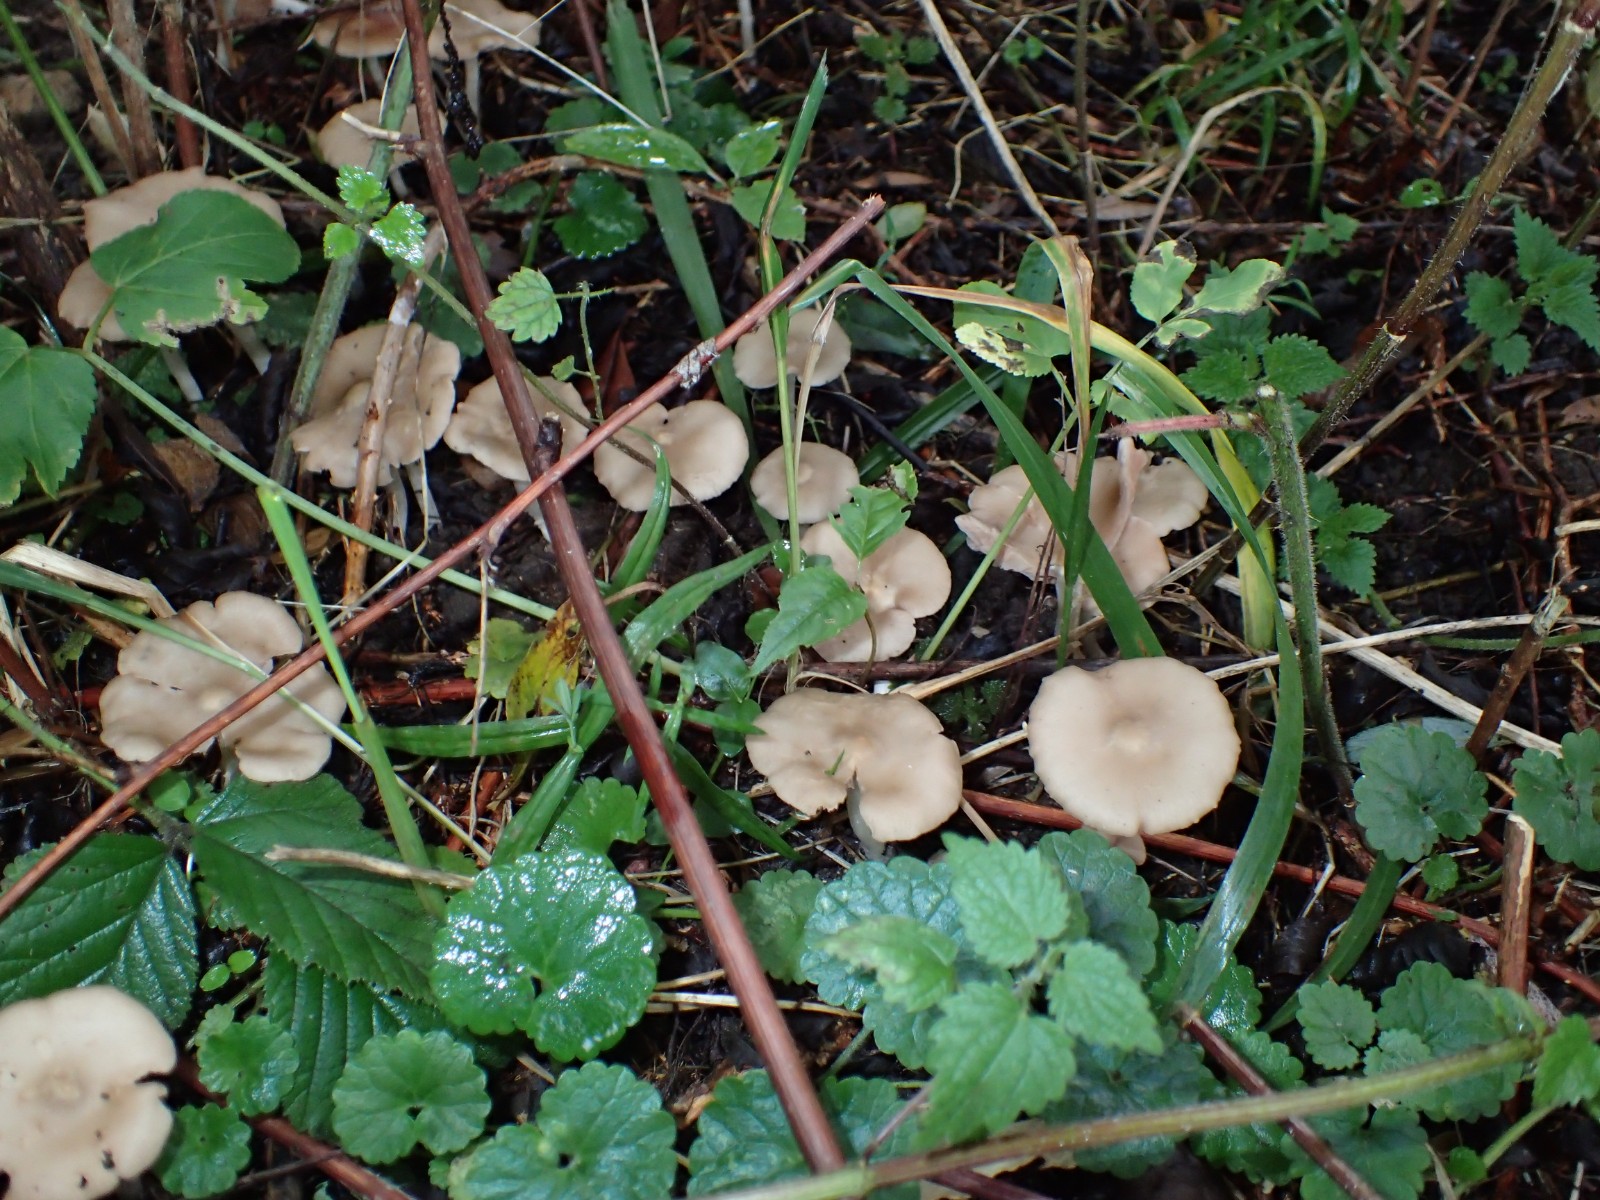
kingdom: Fungi
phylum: Basidiomycota
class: Agaricomycetes
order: Agaricales
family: Entolomataceae
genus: Entoloma
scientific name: Entoloma
